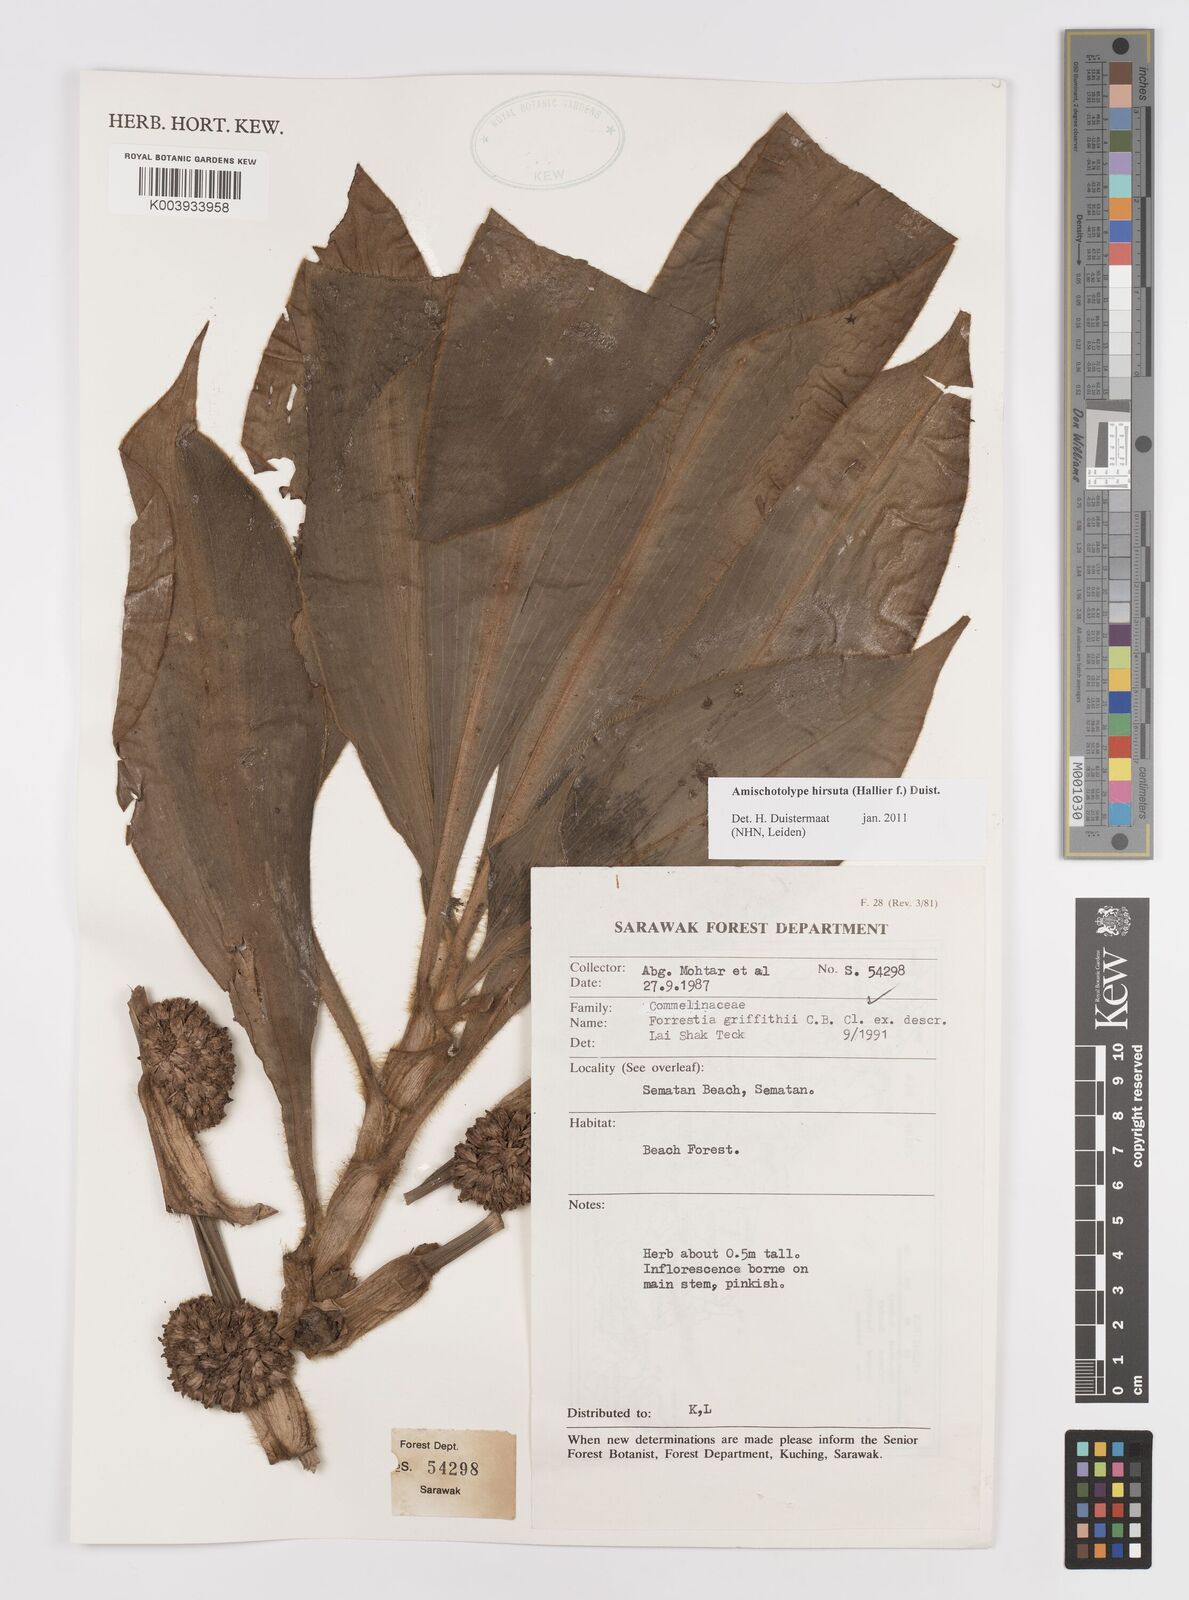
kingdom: Plantae
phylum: Tracheophyta
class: Liliopsida
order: Commelinales
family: Commelinaceae
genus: Amischotolype
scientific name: Amischotolype hirsuta
